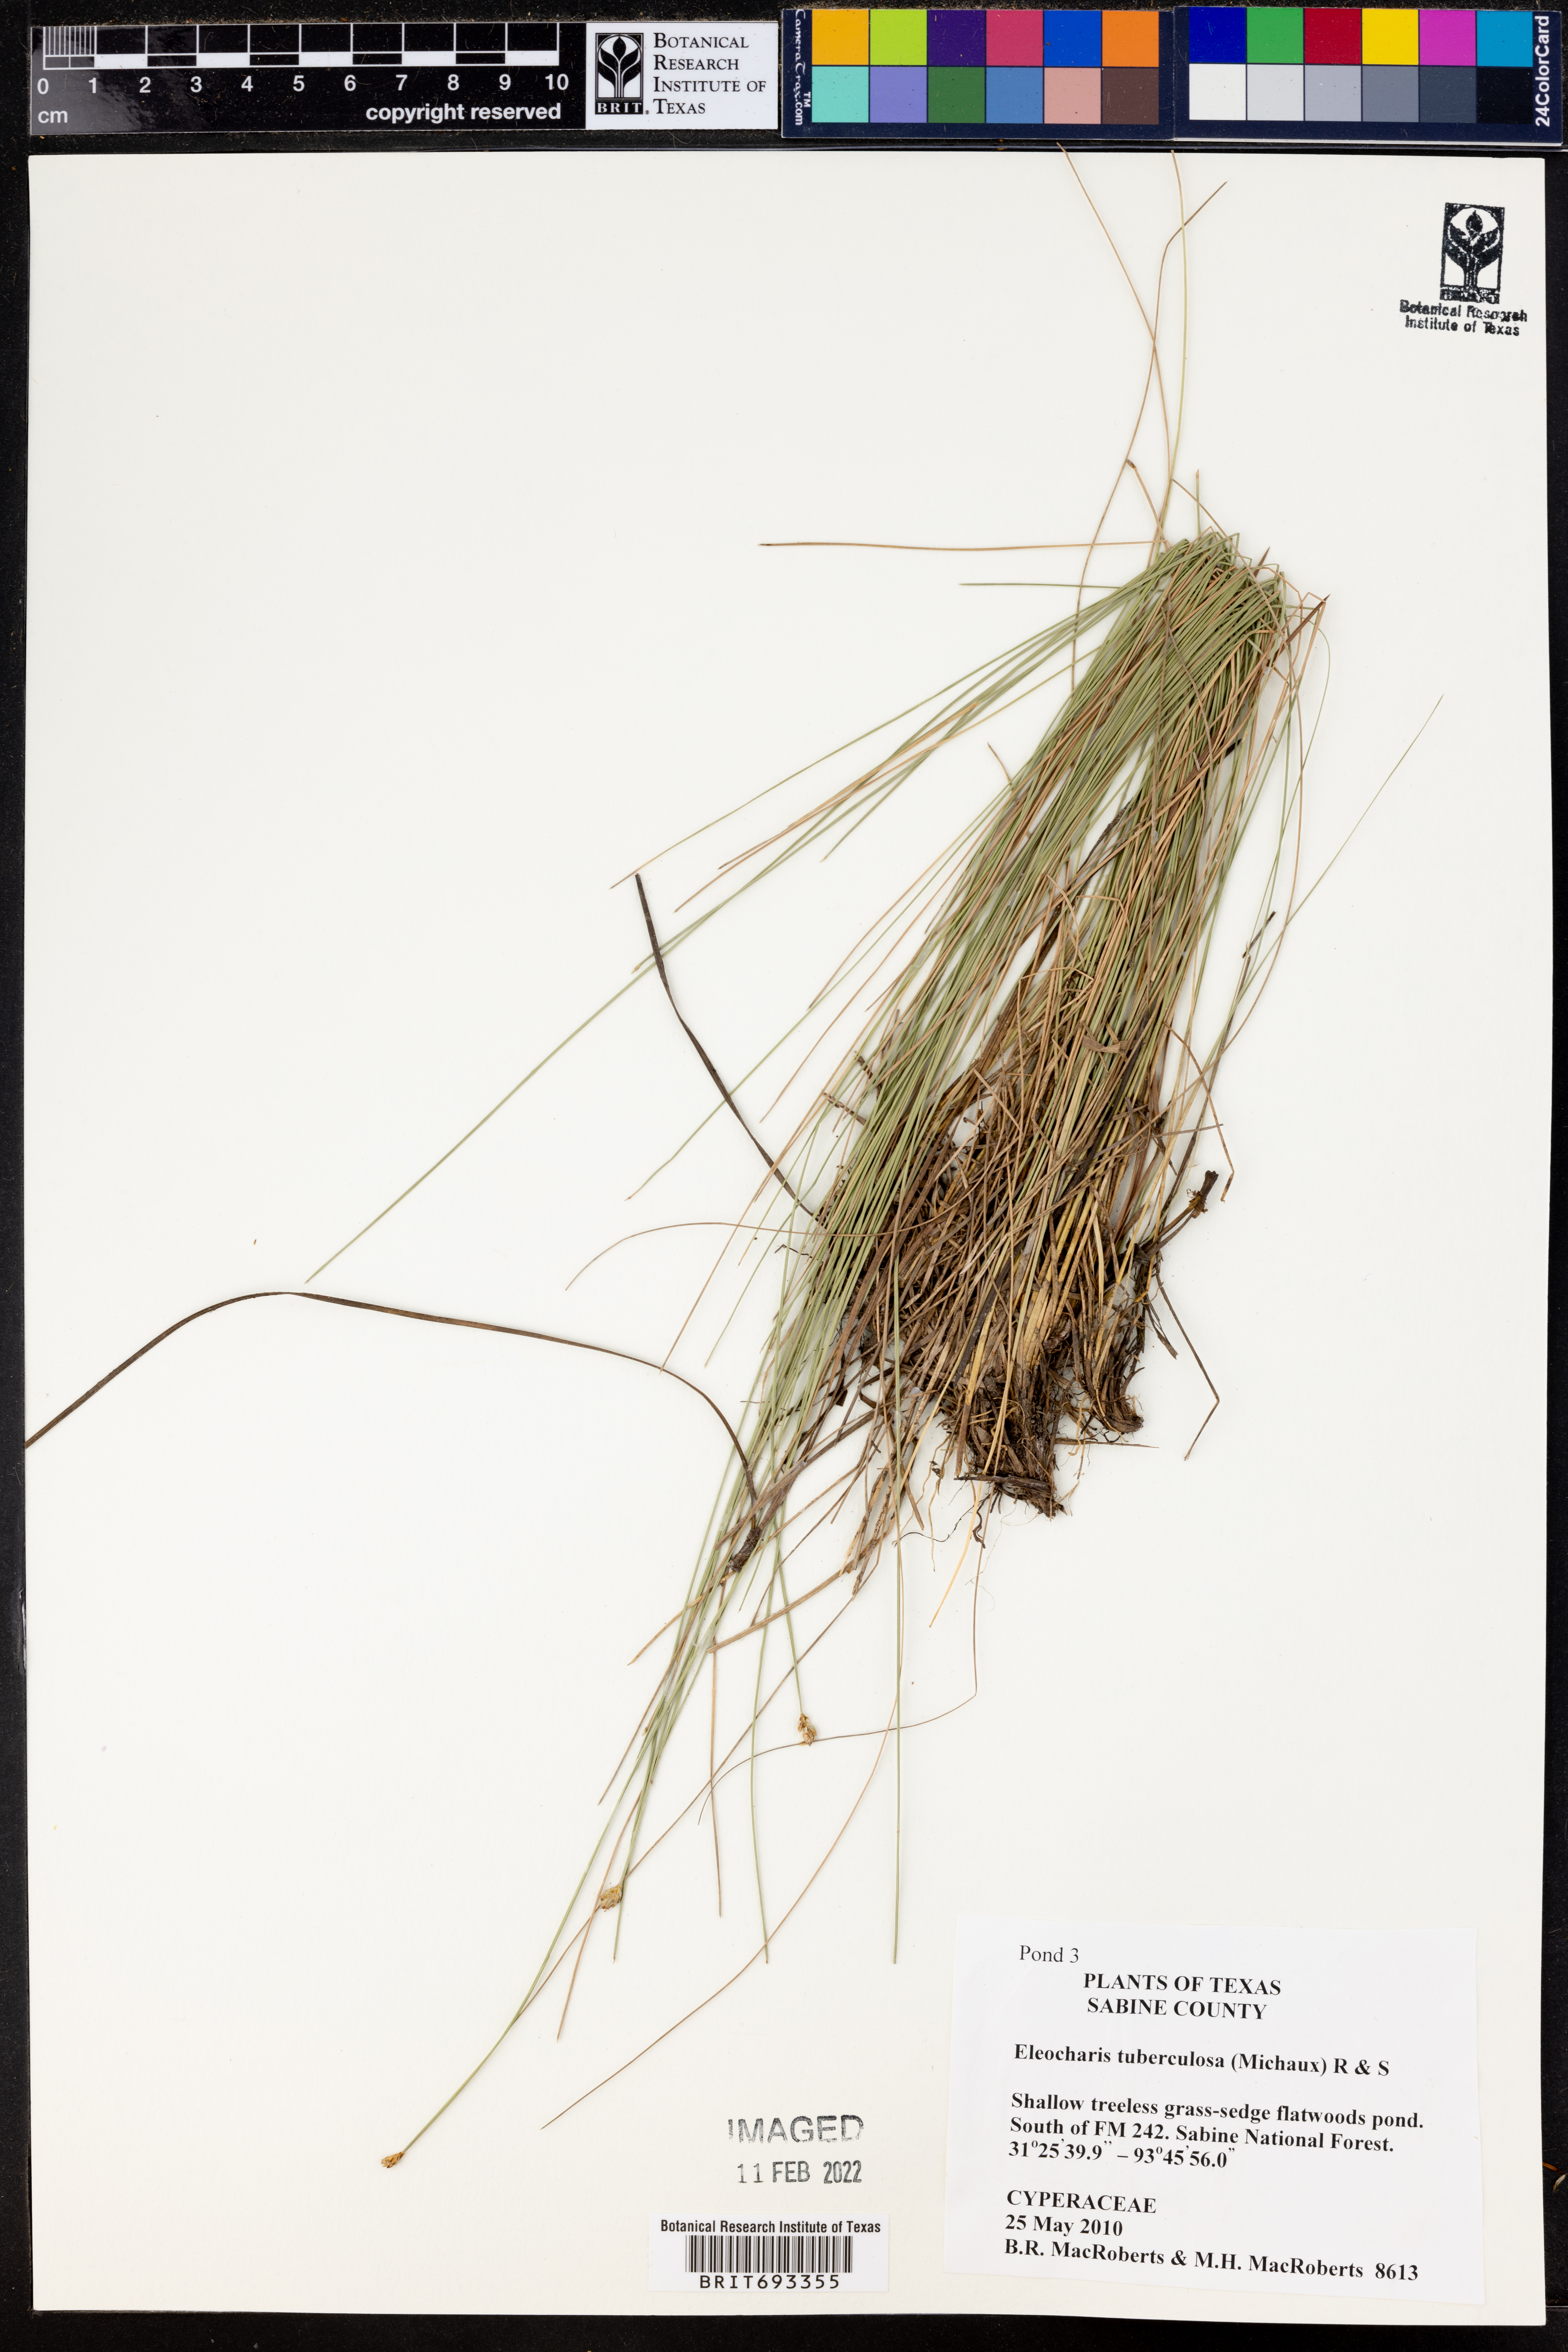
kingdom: Plantae
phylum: Tracheophyta
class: Liliopsida
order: Poales
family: Cyperaceae
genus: Eleocharis
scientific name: Eleocharis tuberculosa
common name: Cone-cup spikerush
